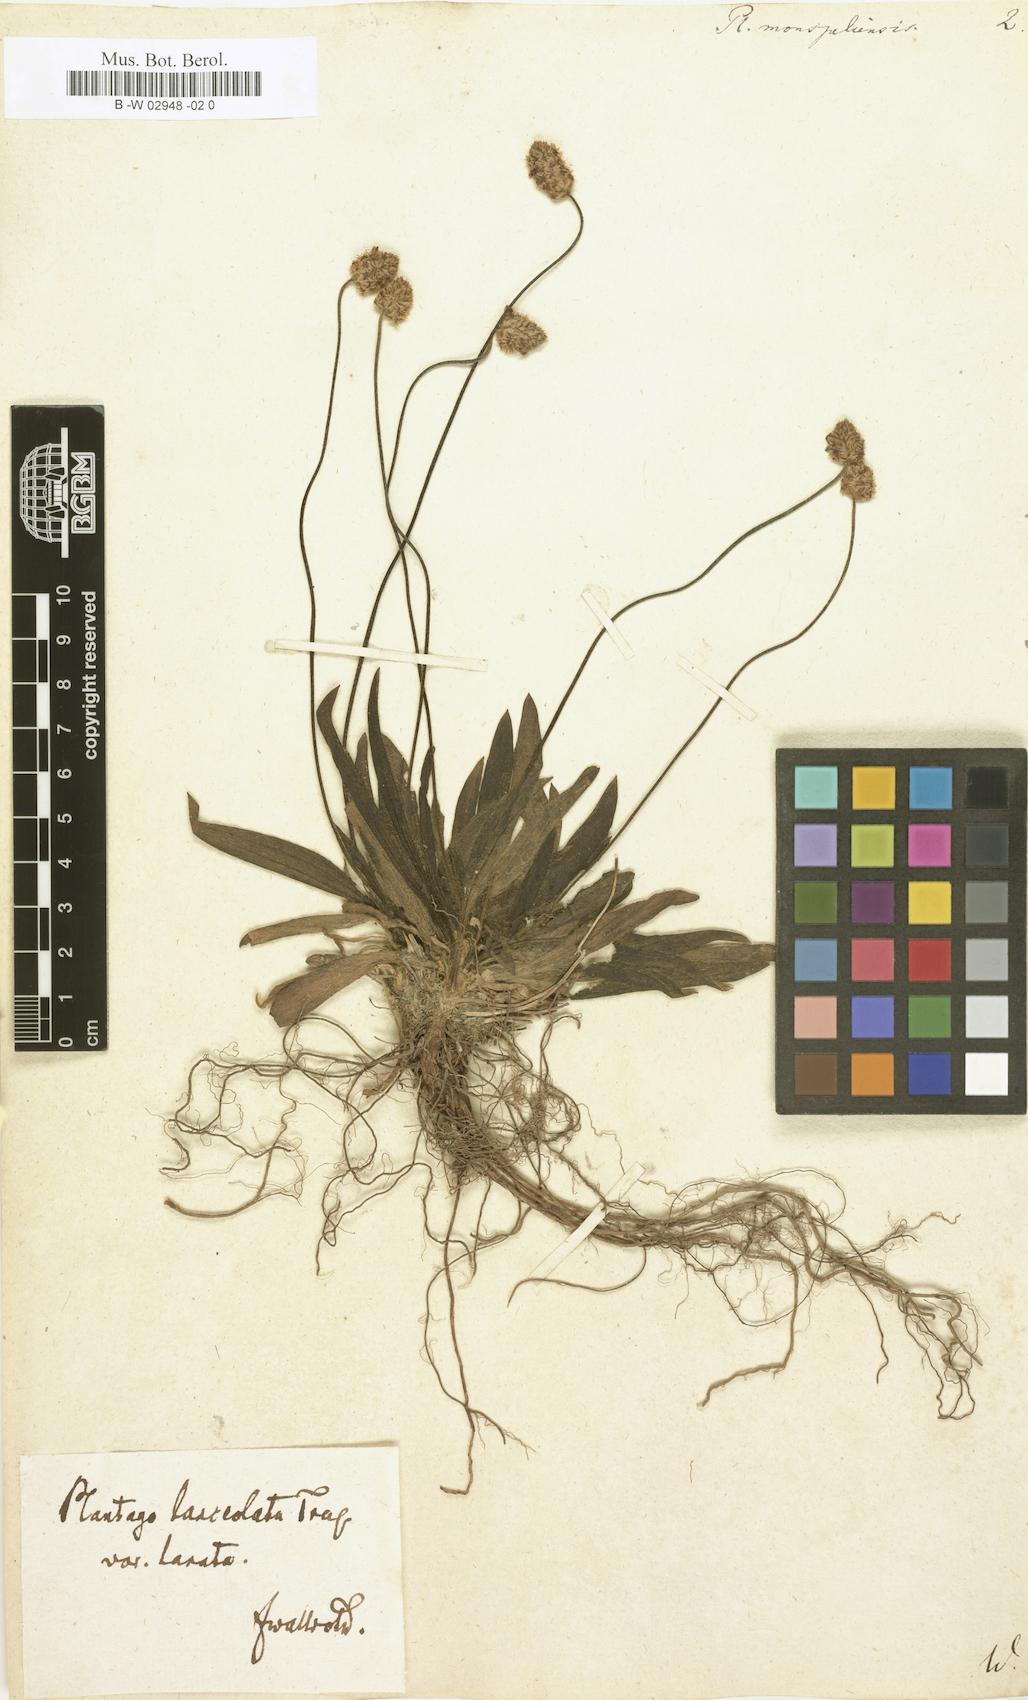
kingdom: Plantae
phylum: Tracheophyta
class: Magnoliopsida
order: Lamiales
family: Plantaginaceae
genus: Plantago
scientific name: Plantago ovata
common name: Blond plantain
